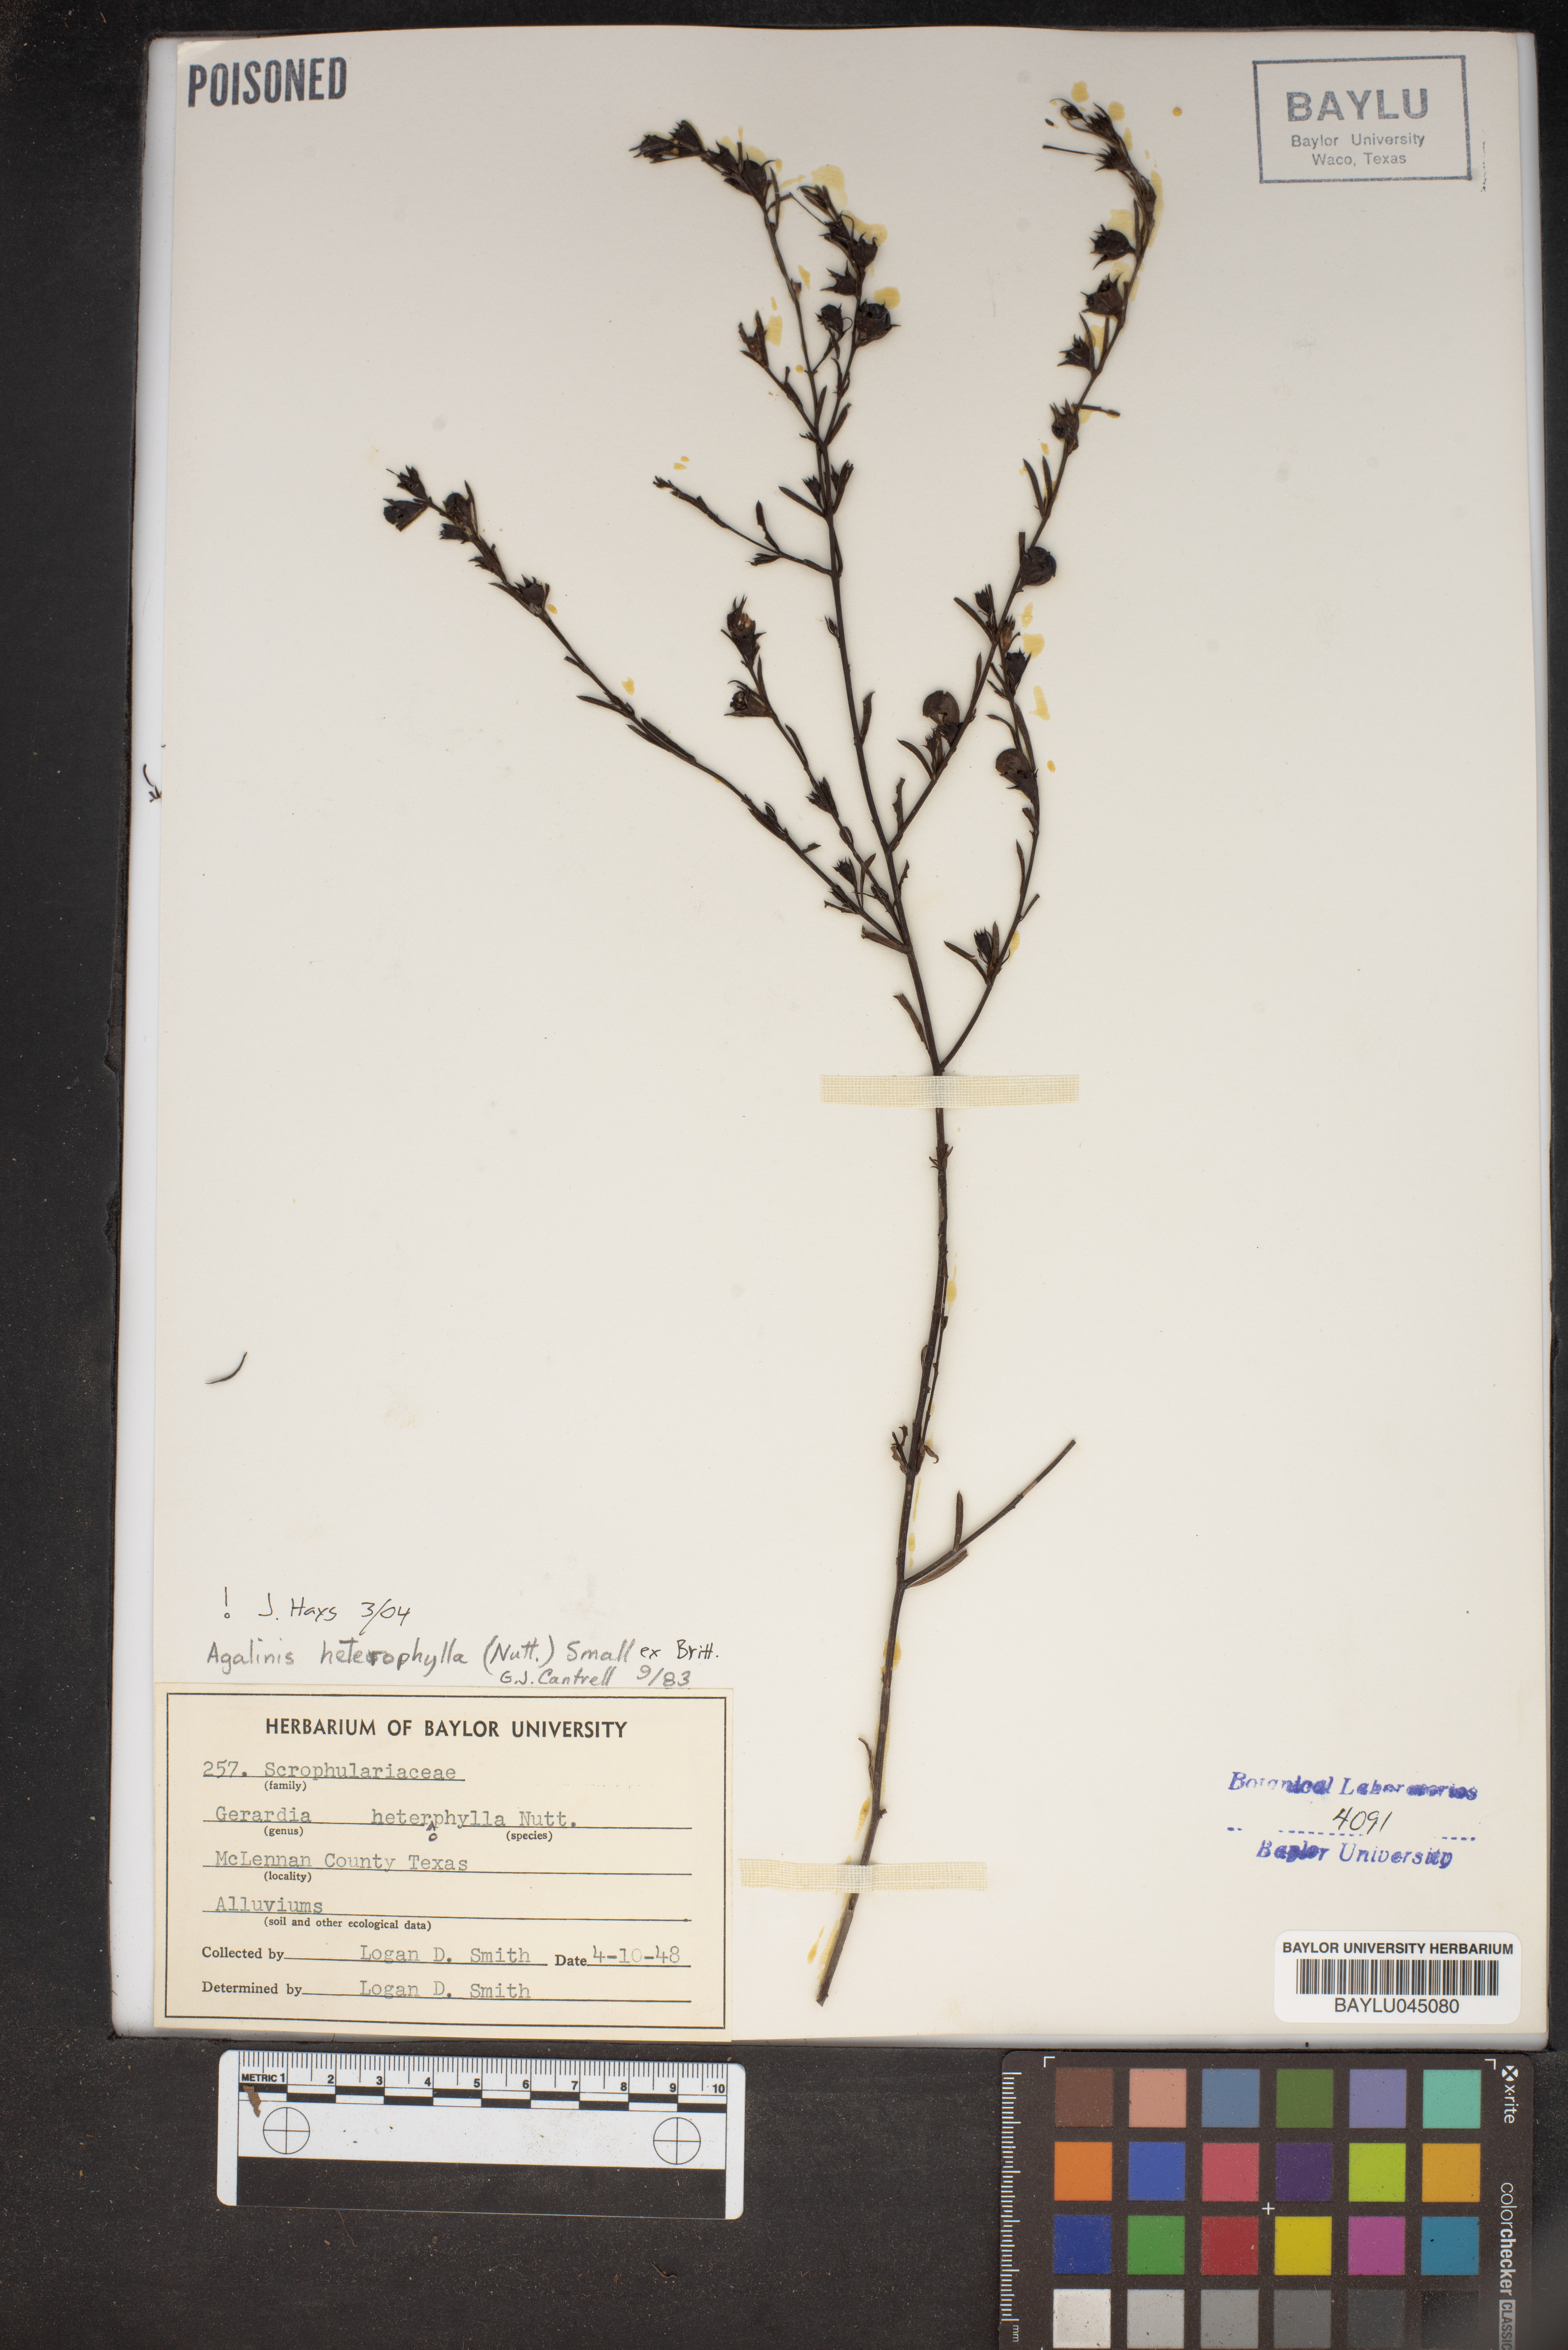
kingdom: Plantae
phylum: Tracheophyta
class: Magnoliopsida
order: Lamiales
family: Orobanchaceae
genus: Agalinis
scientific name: Agalinis heterophylla
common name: Prairie agalinis
